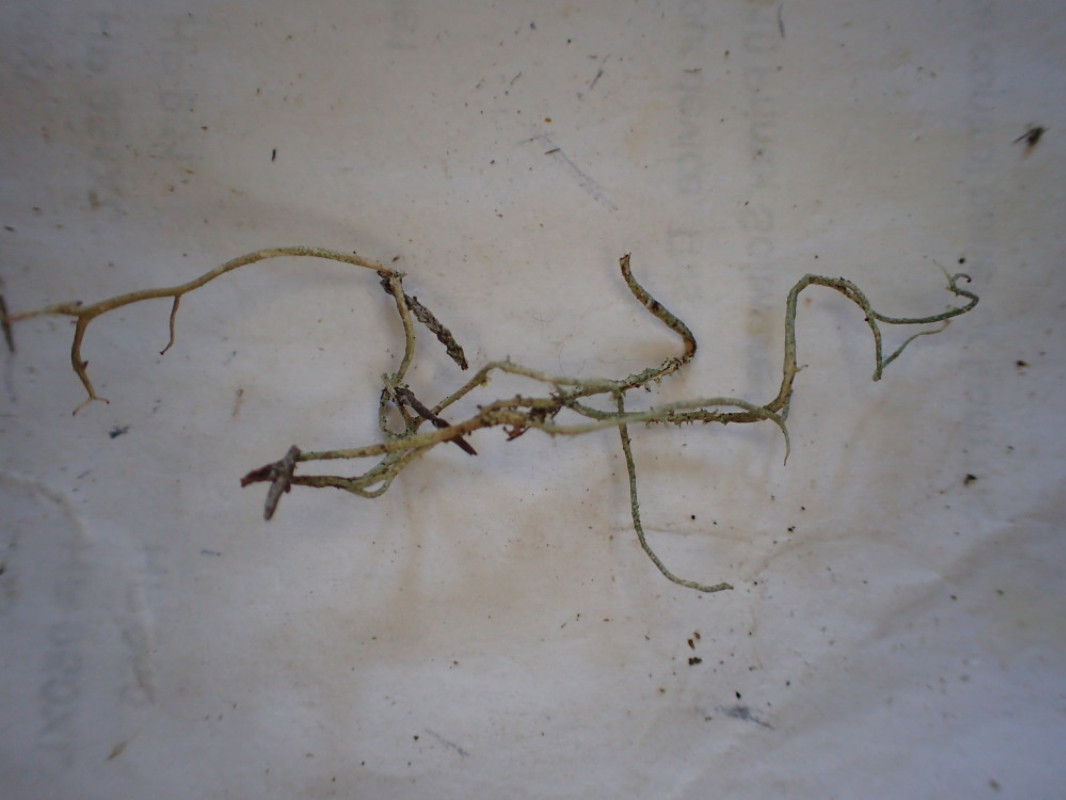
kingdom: Fungi
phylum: Ascomycota
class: Lecanoromycetes
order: Lecanorales
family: Cladoniaceae
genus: Cladonia
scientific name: Cladonia scabriuscula
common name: ru bægerlav
